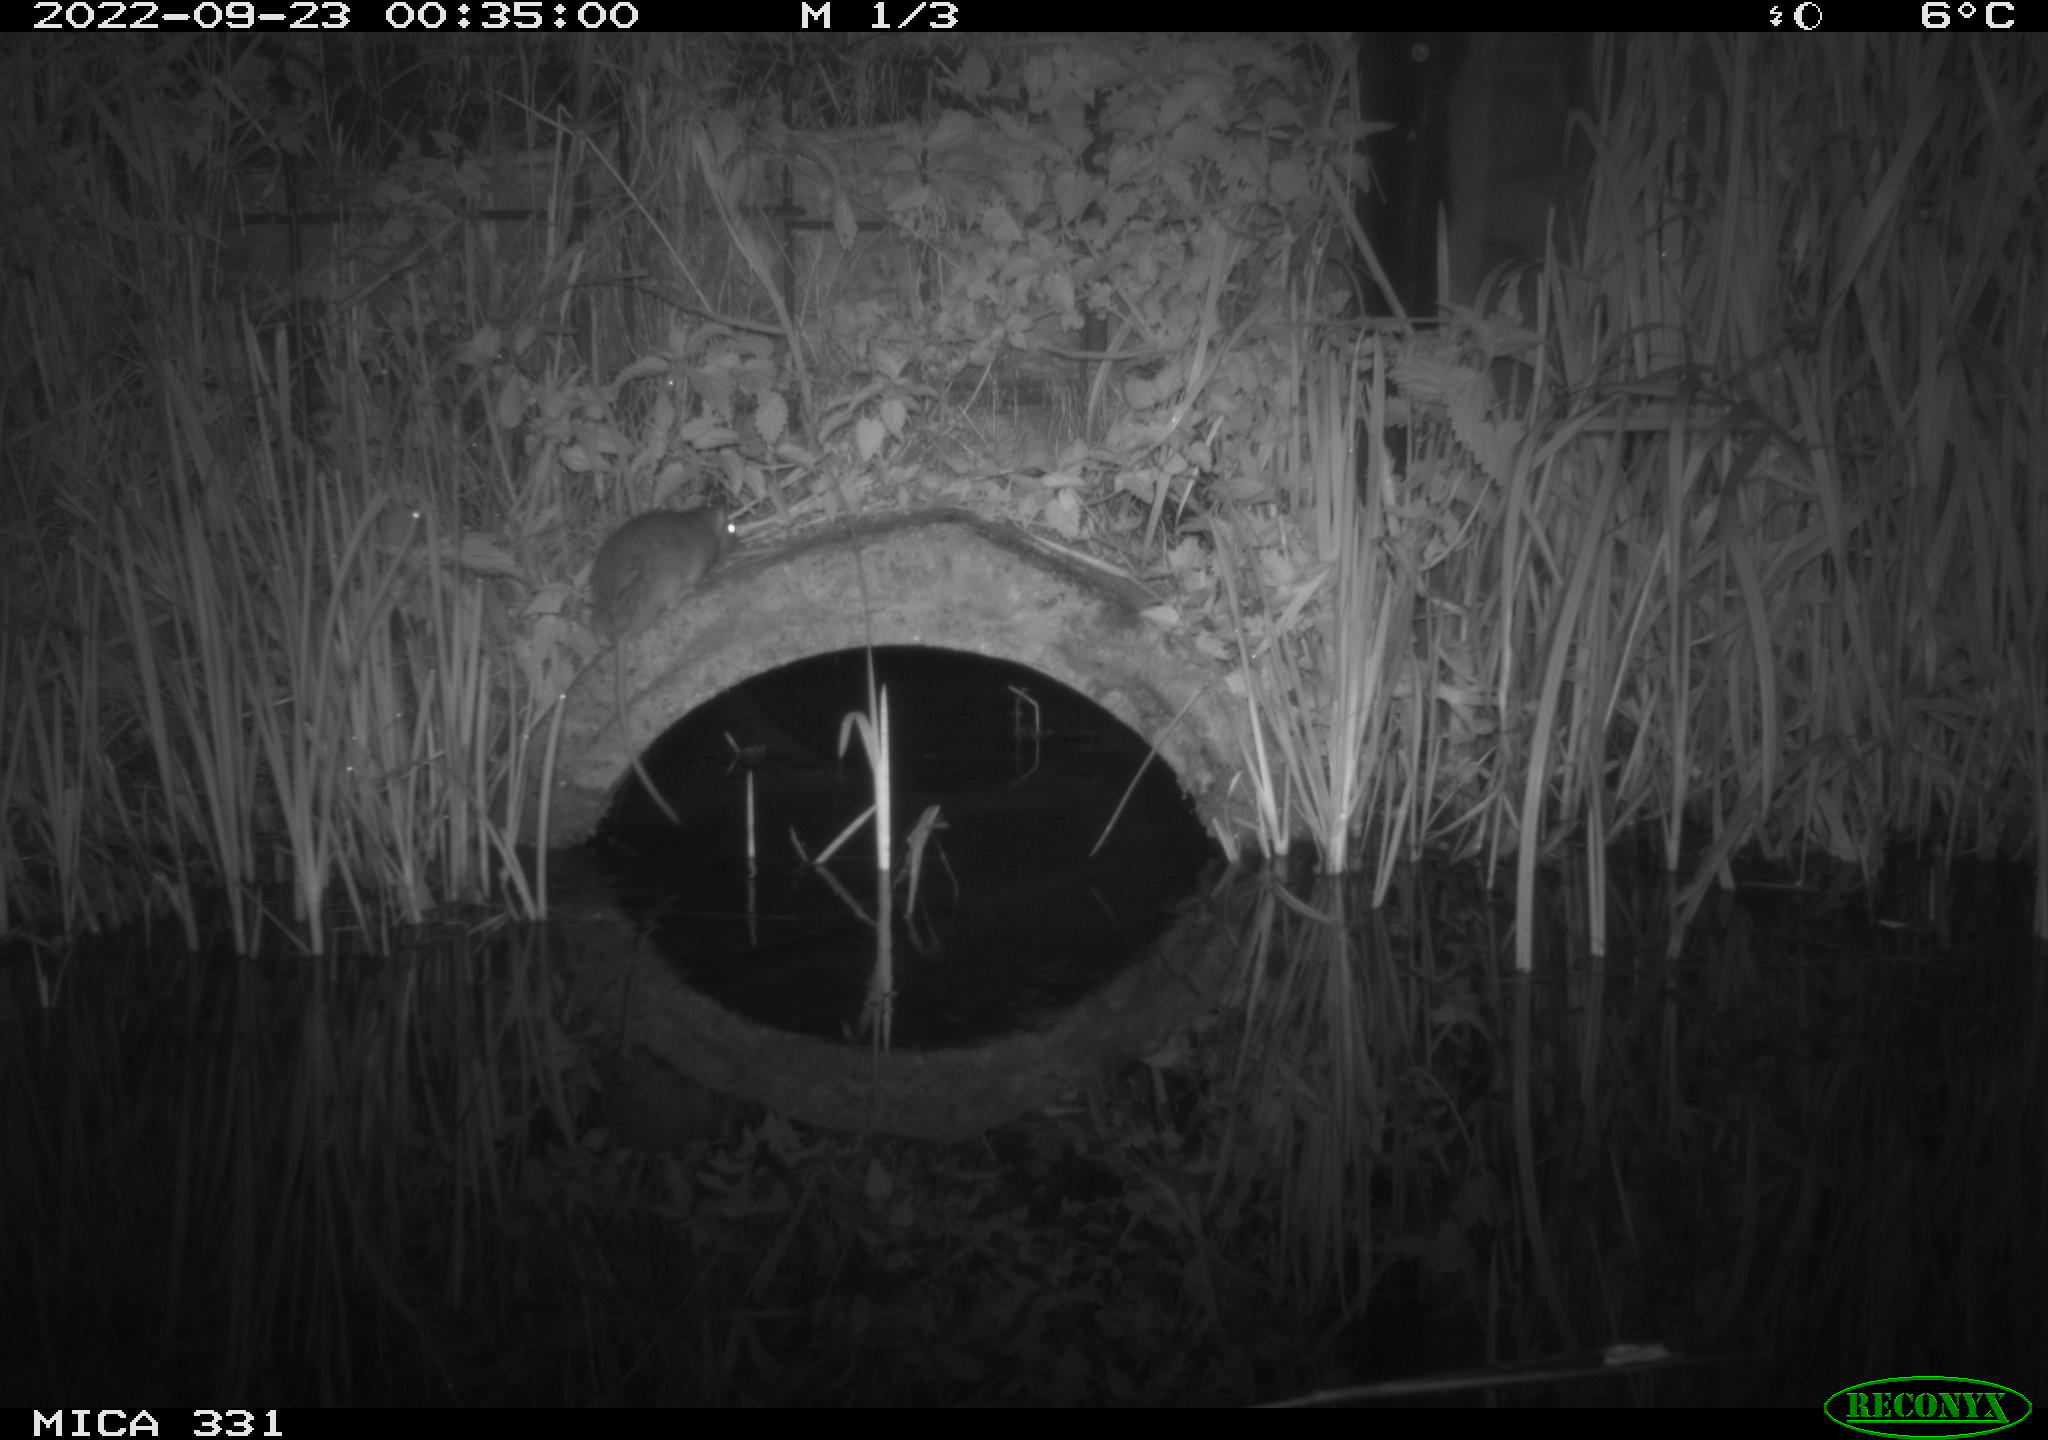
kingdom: Animalia
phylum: Chordata
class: Mammalia
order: Rodentia
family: Muridae
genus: Rattus
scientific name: Rattus norvegicus
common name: Brown rat
